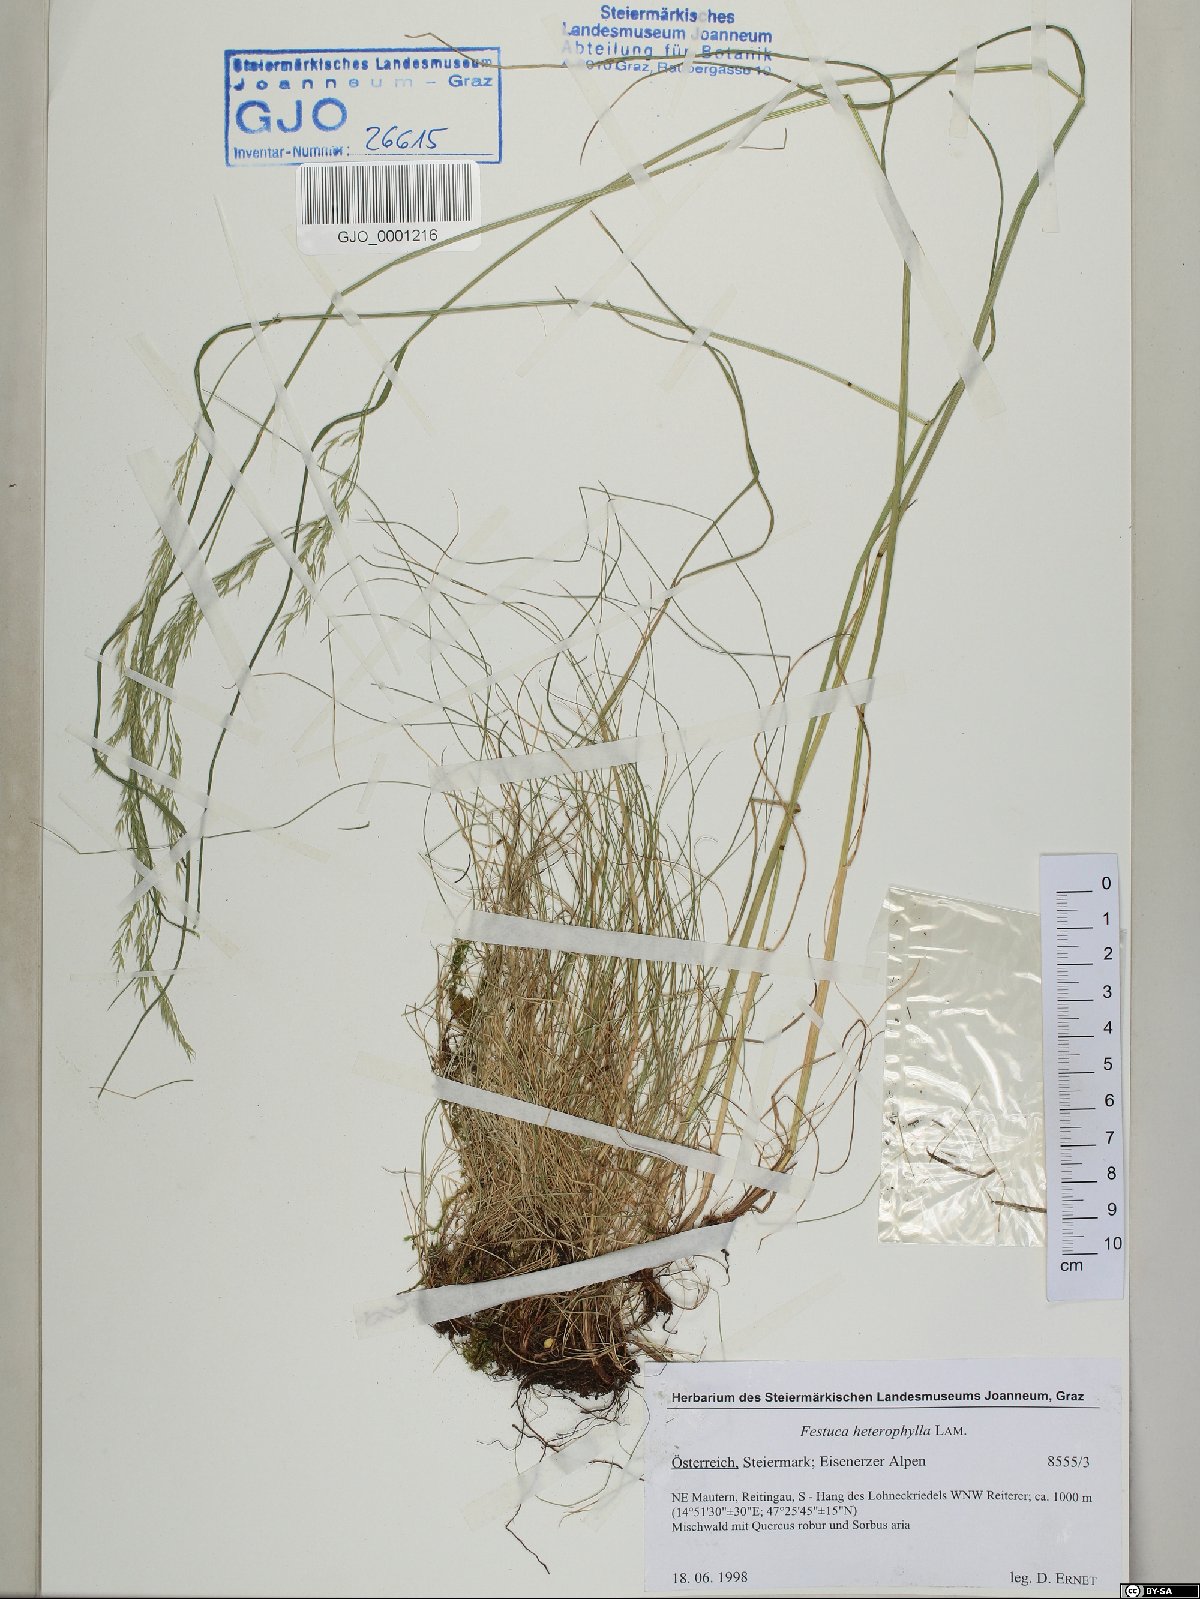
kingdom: Plantae
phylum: Tracheophyta
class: Liliopsida
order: Poales
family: Poaceae
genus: Festuca
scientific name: Festuca heterophylla
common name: Various-leaved fescue
